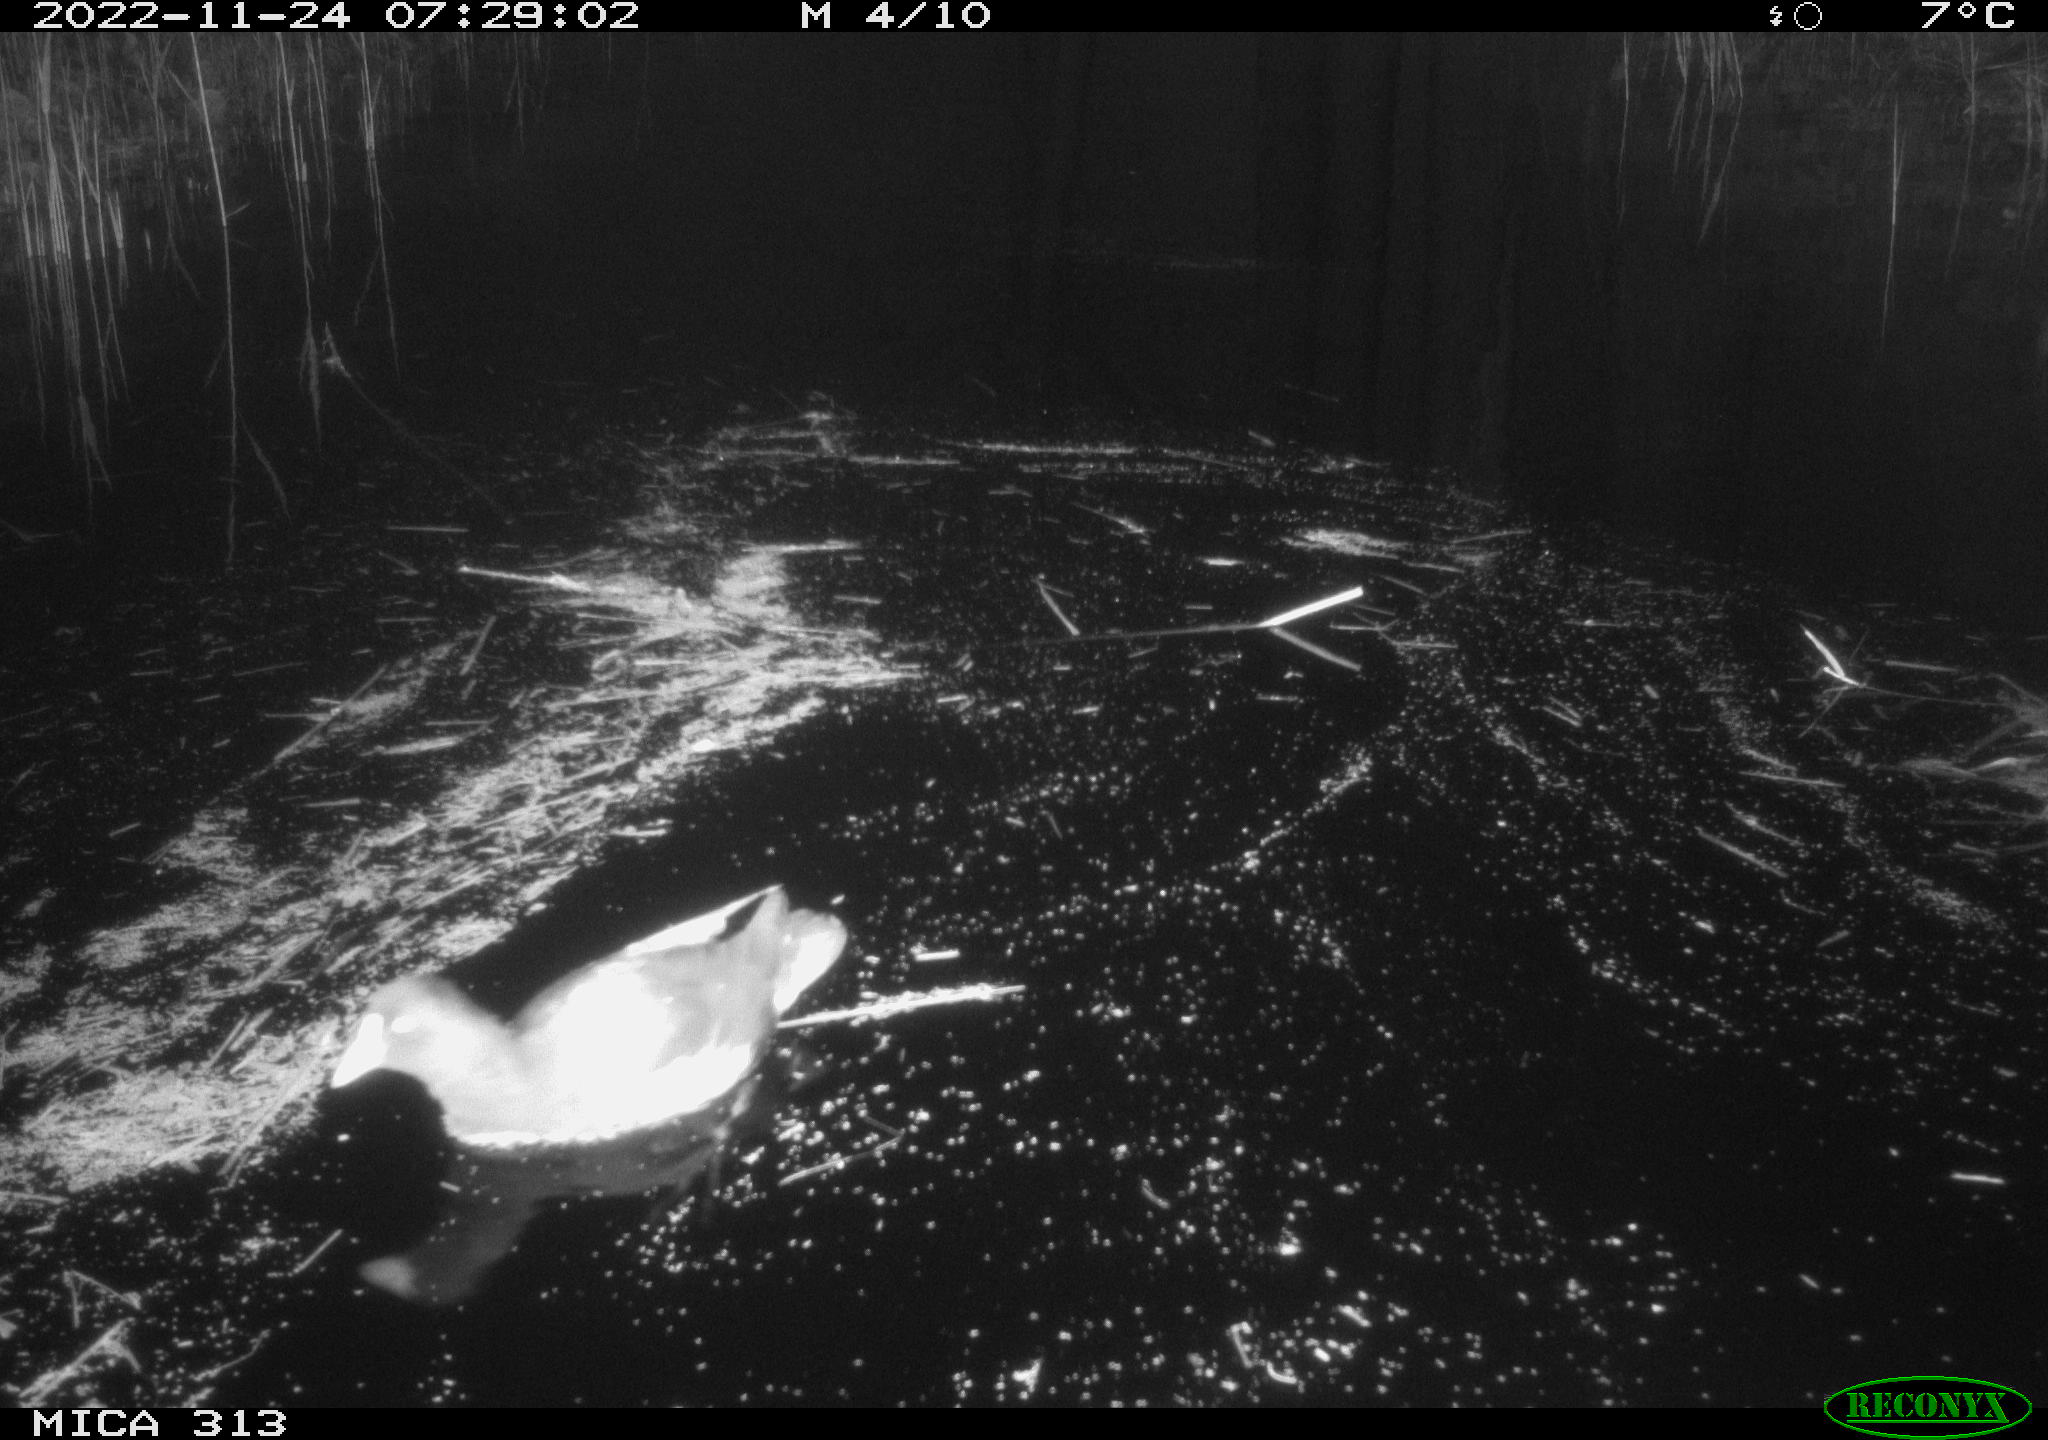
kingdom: Animalia
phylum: Chordata
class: Aves
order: Gruiformes
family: Rallidae
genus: Gallinula
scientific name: Gallinula chloropus
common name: Common moorhen
